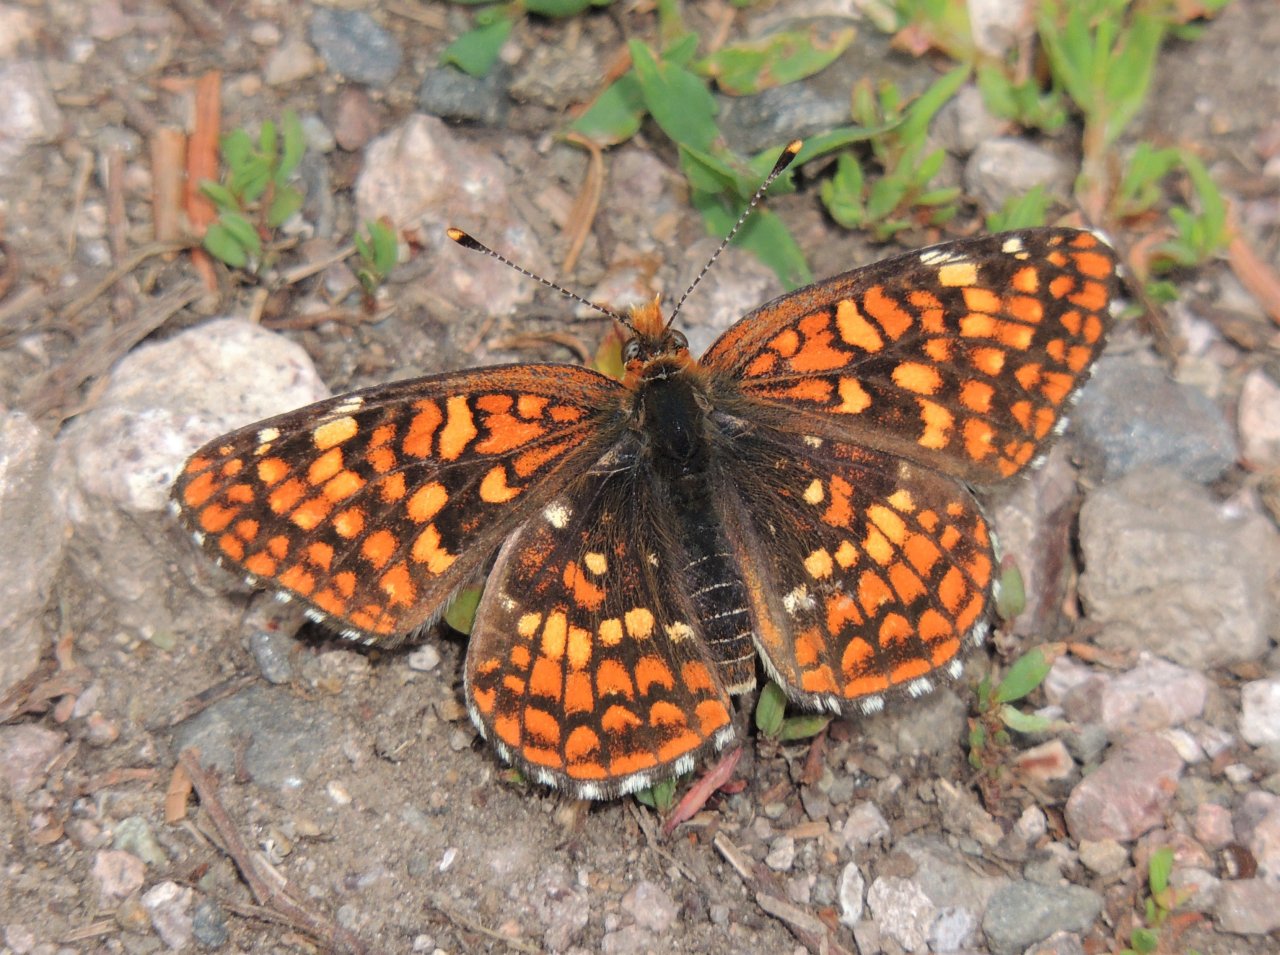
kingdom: Animalia
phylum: Arthropoda
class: Insecta
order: Lepidoptera
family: Nymphalidae
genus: Chlosyne
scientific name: Chlosyne palla
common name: Northern Checkerspot
